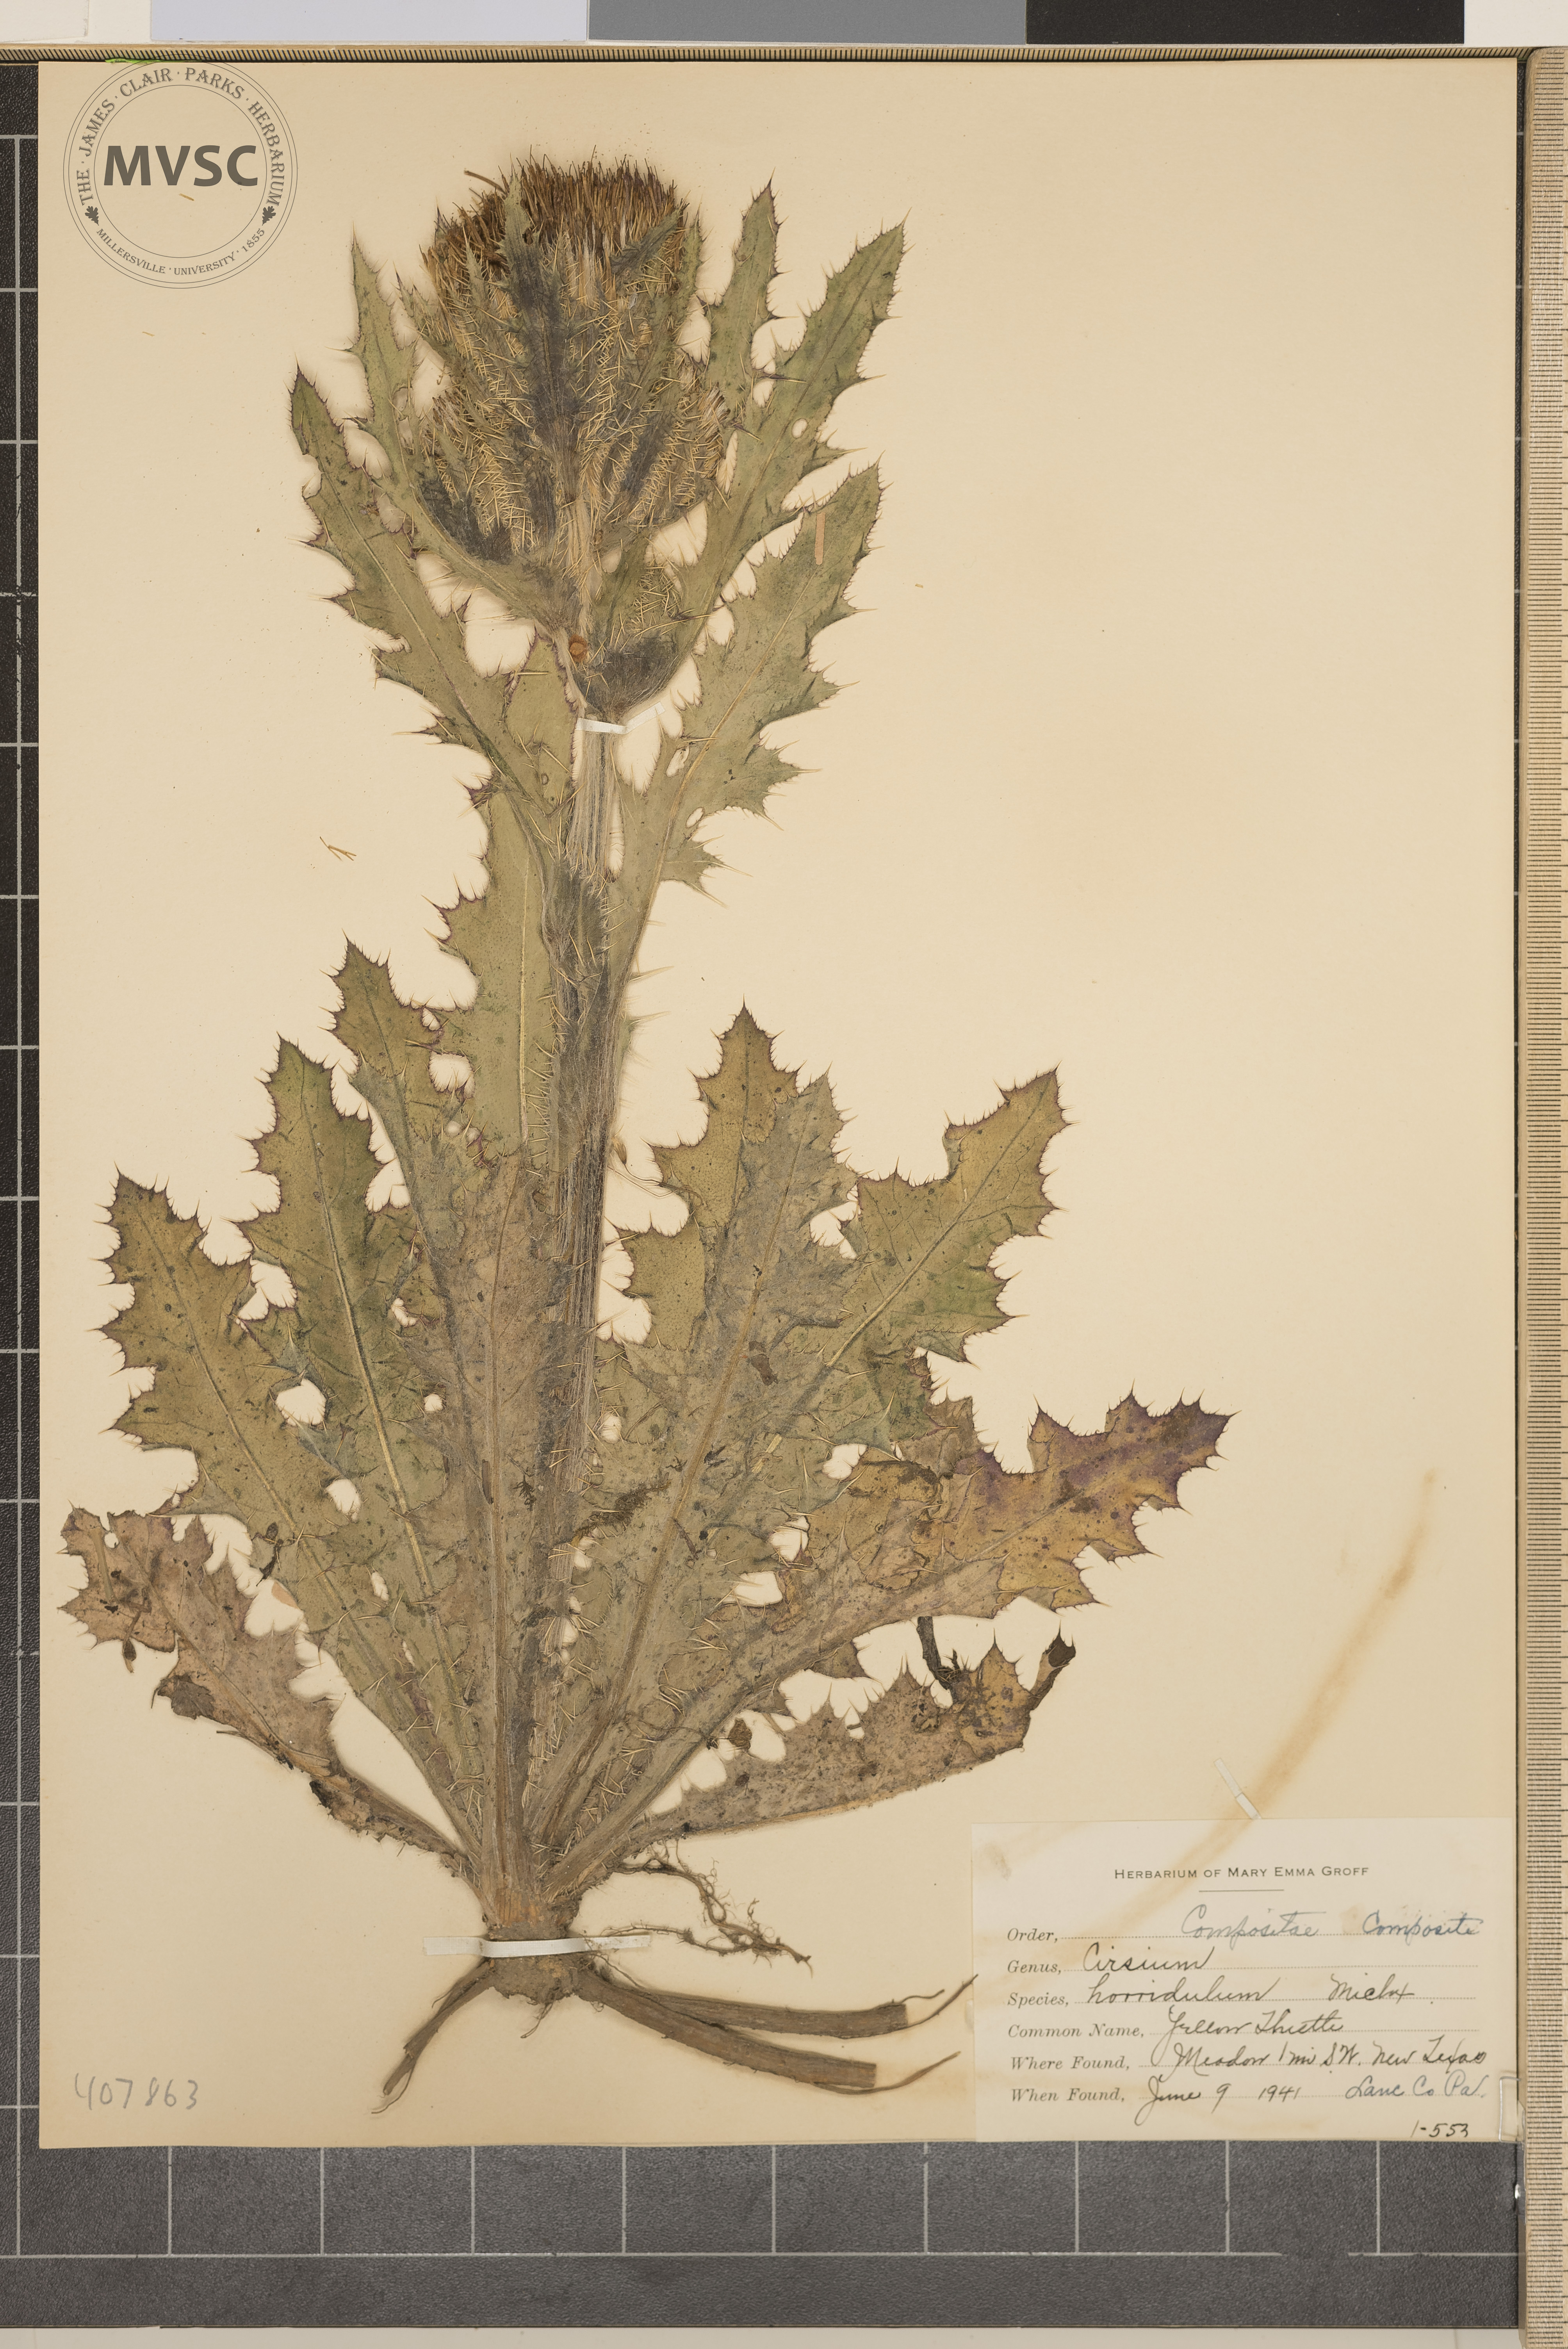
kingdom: Plantae
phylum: Tracheophyta
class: Magnoliopsida
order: Asterales
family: Asteraceae
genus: Cirsium
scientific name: Cirsium horridulum
